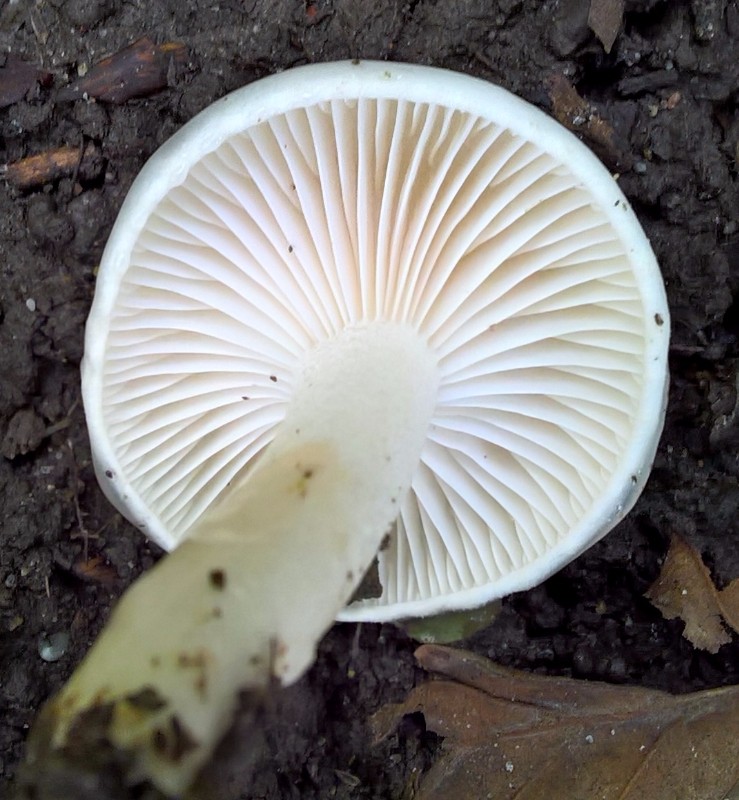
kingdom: Fungi
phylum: Basidiomycota
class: Agaricomycetes
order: Agaricales
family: Hygrophoraceae
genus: Hygrophorus
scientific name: Hygrophorus discoxanthus
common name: ildelugtende sneglehat
